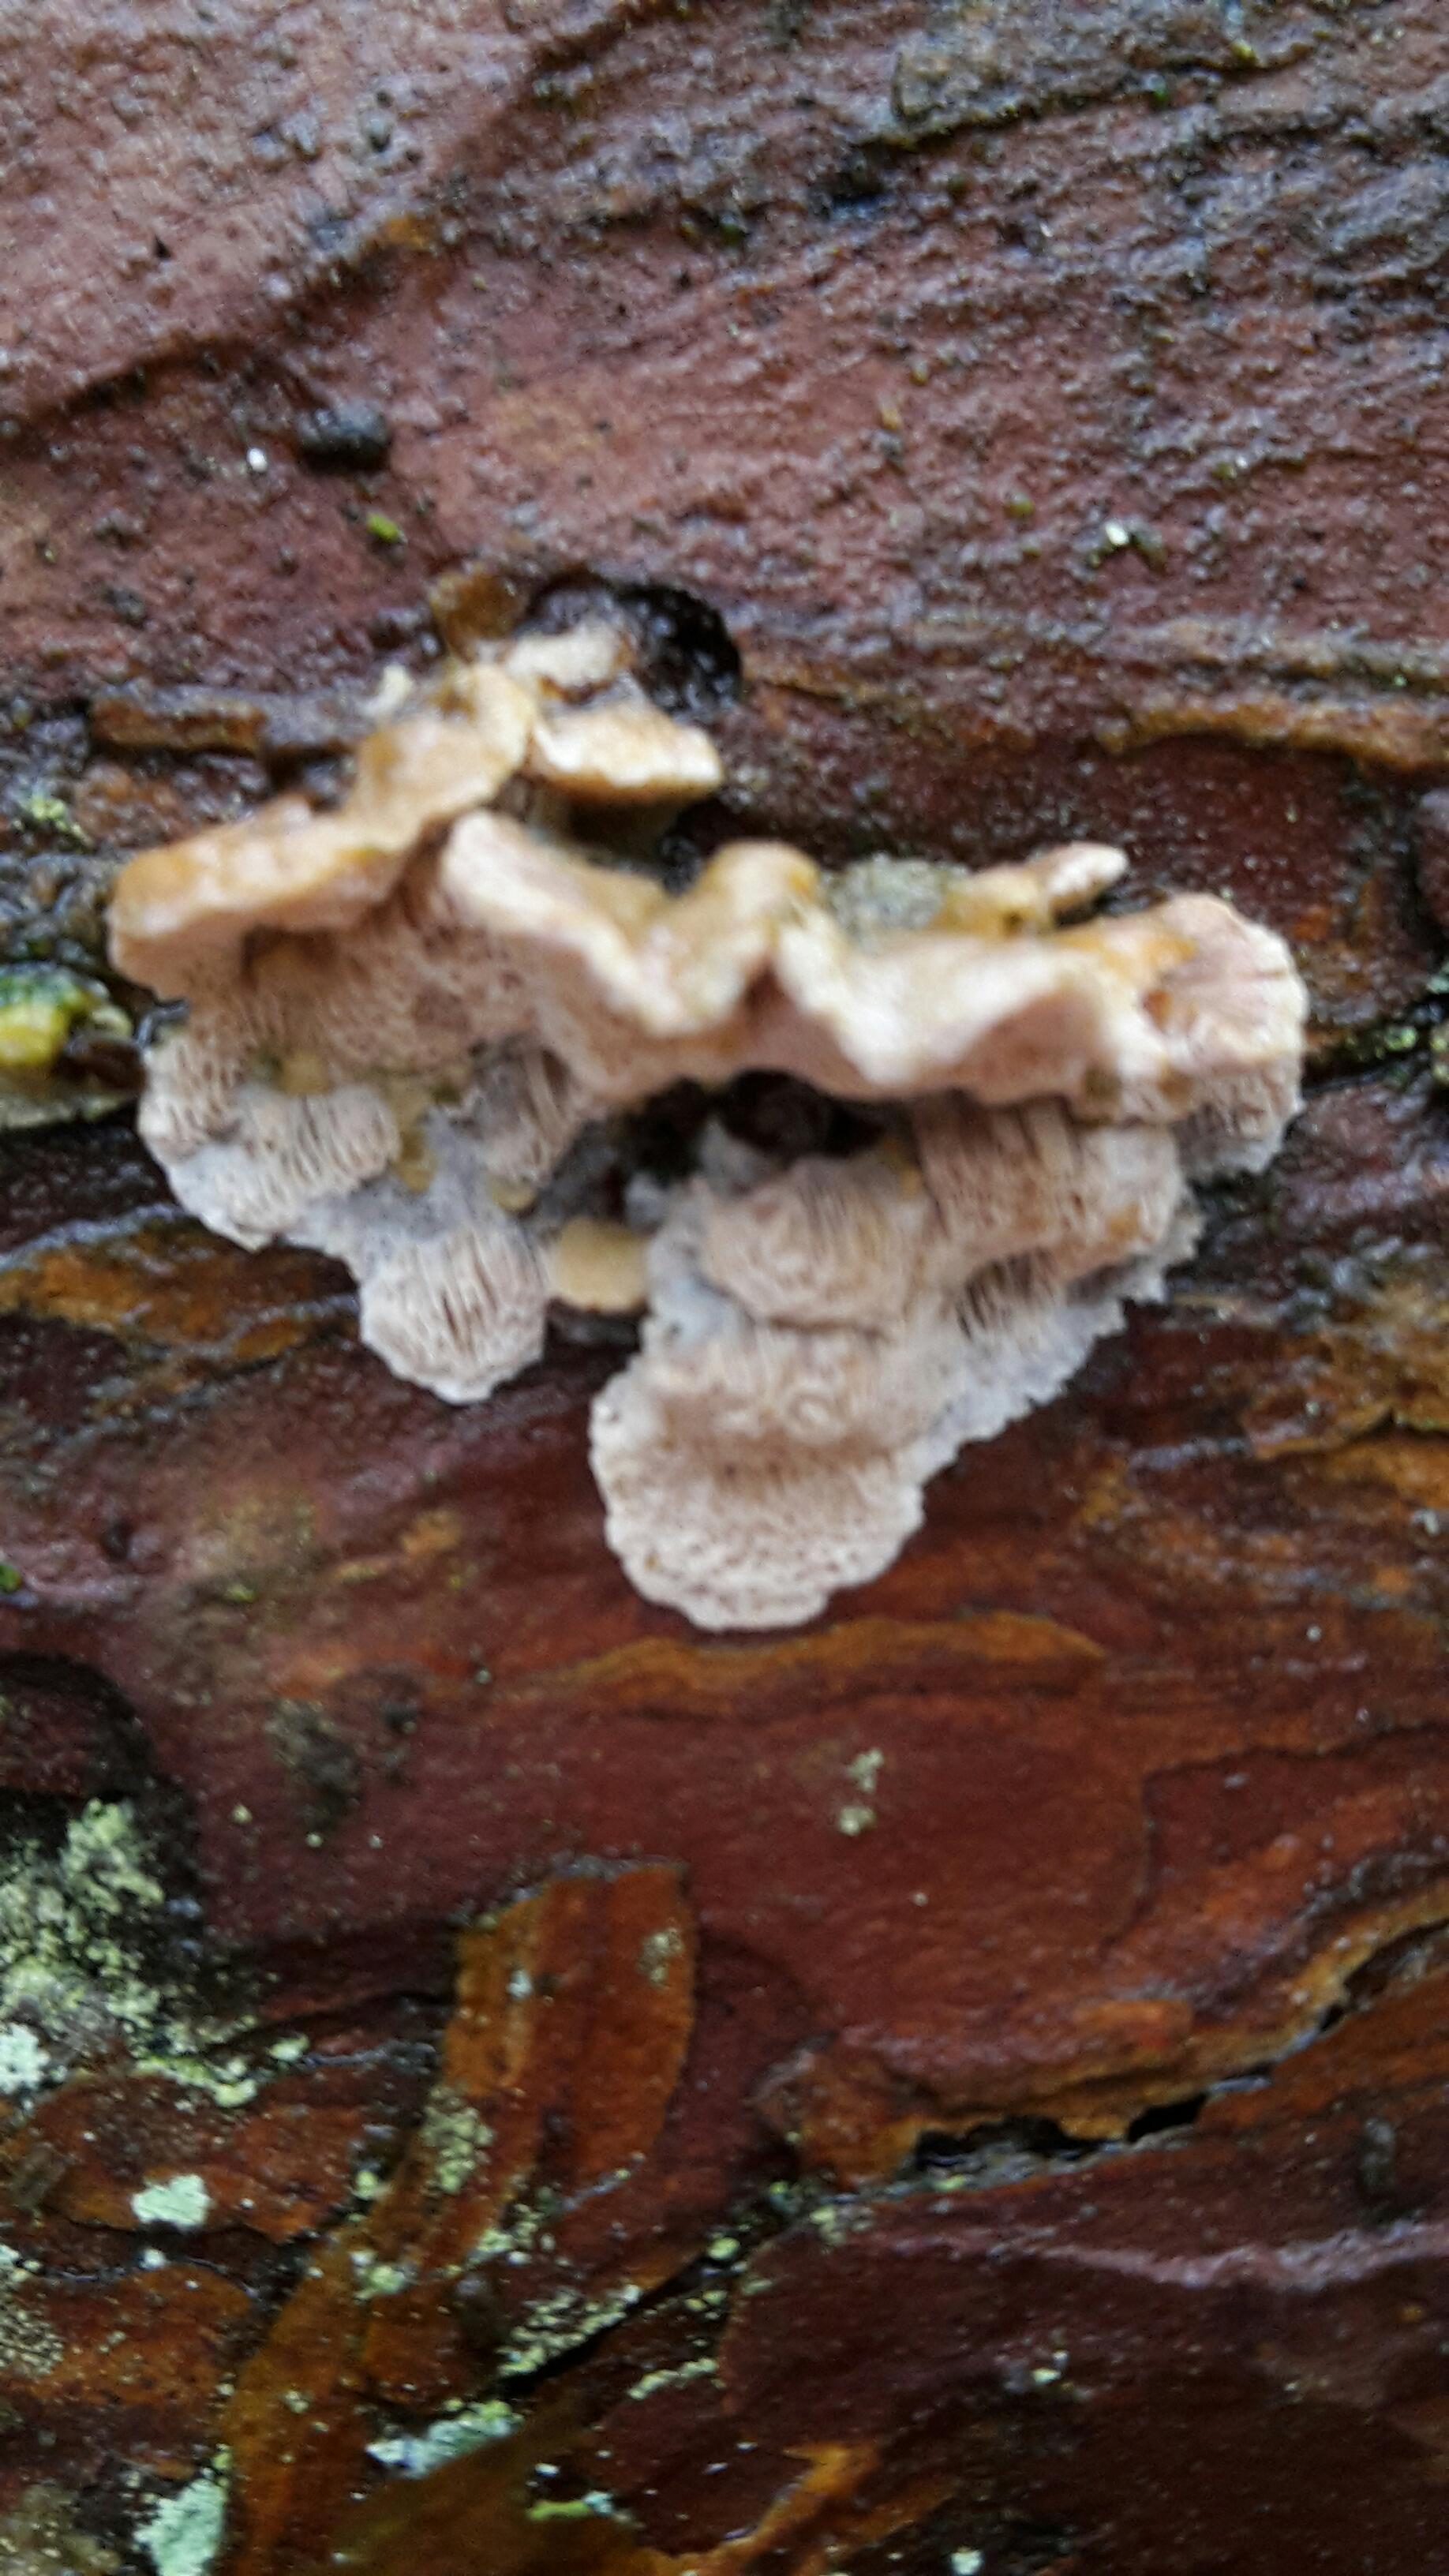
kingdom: Fungi
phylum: Basidiomycota
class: Agaricomycetes
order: Polyporales
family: Incrustoporiaceae
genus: Skeletocutis
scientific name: Skeletocutis amorpha
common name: orange krystalporesvamp
